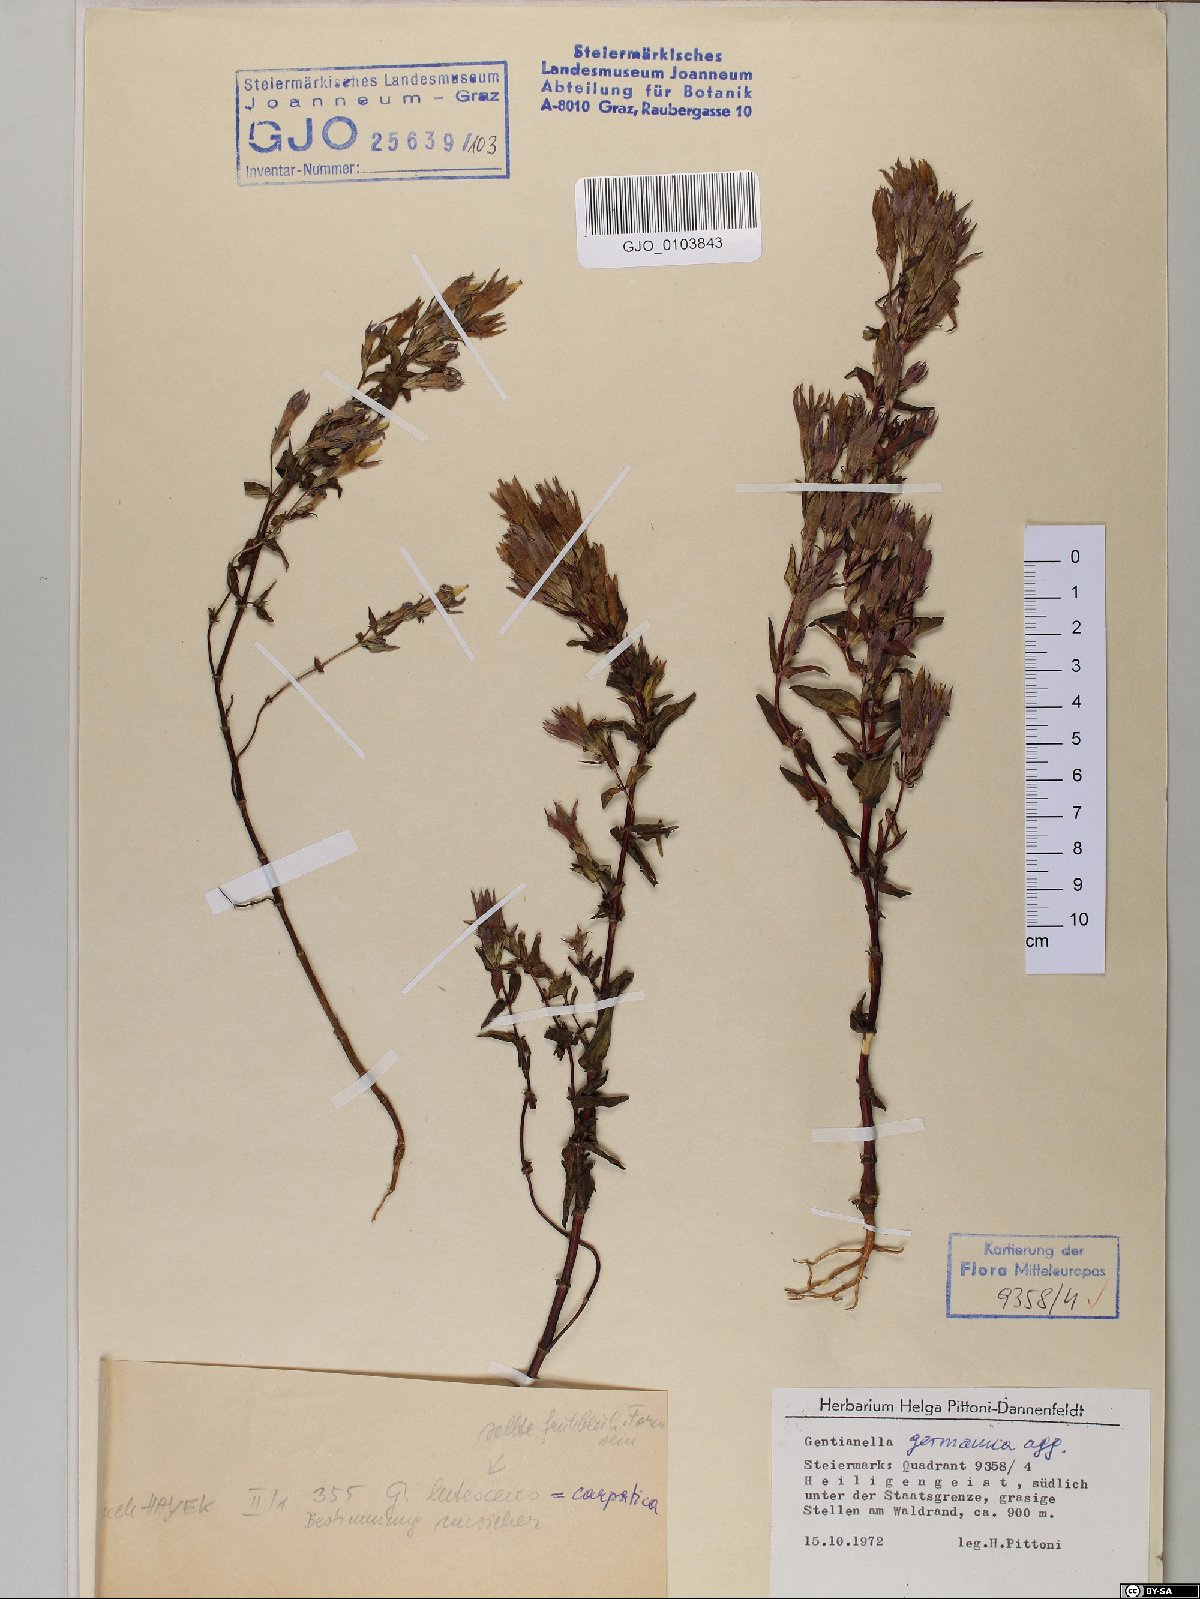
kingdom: Plantae
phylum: Tracheophyta
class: Magnoliopsida
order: Gentianales
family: Gentianaceae
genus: Gentianella
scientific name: Gentianella germanica
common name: Chiltern-gentian
